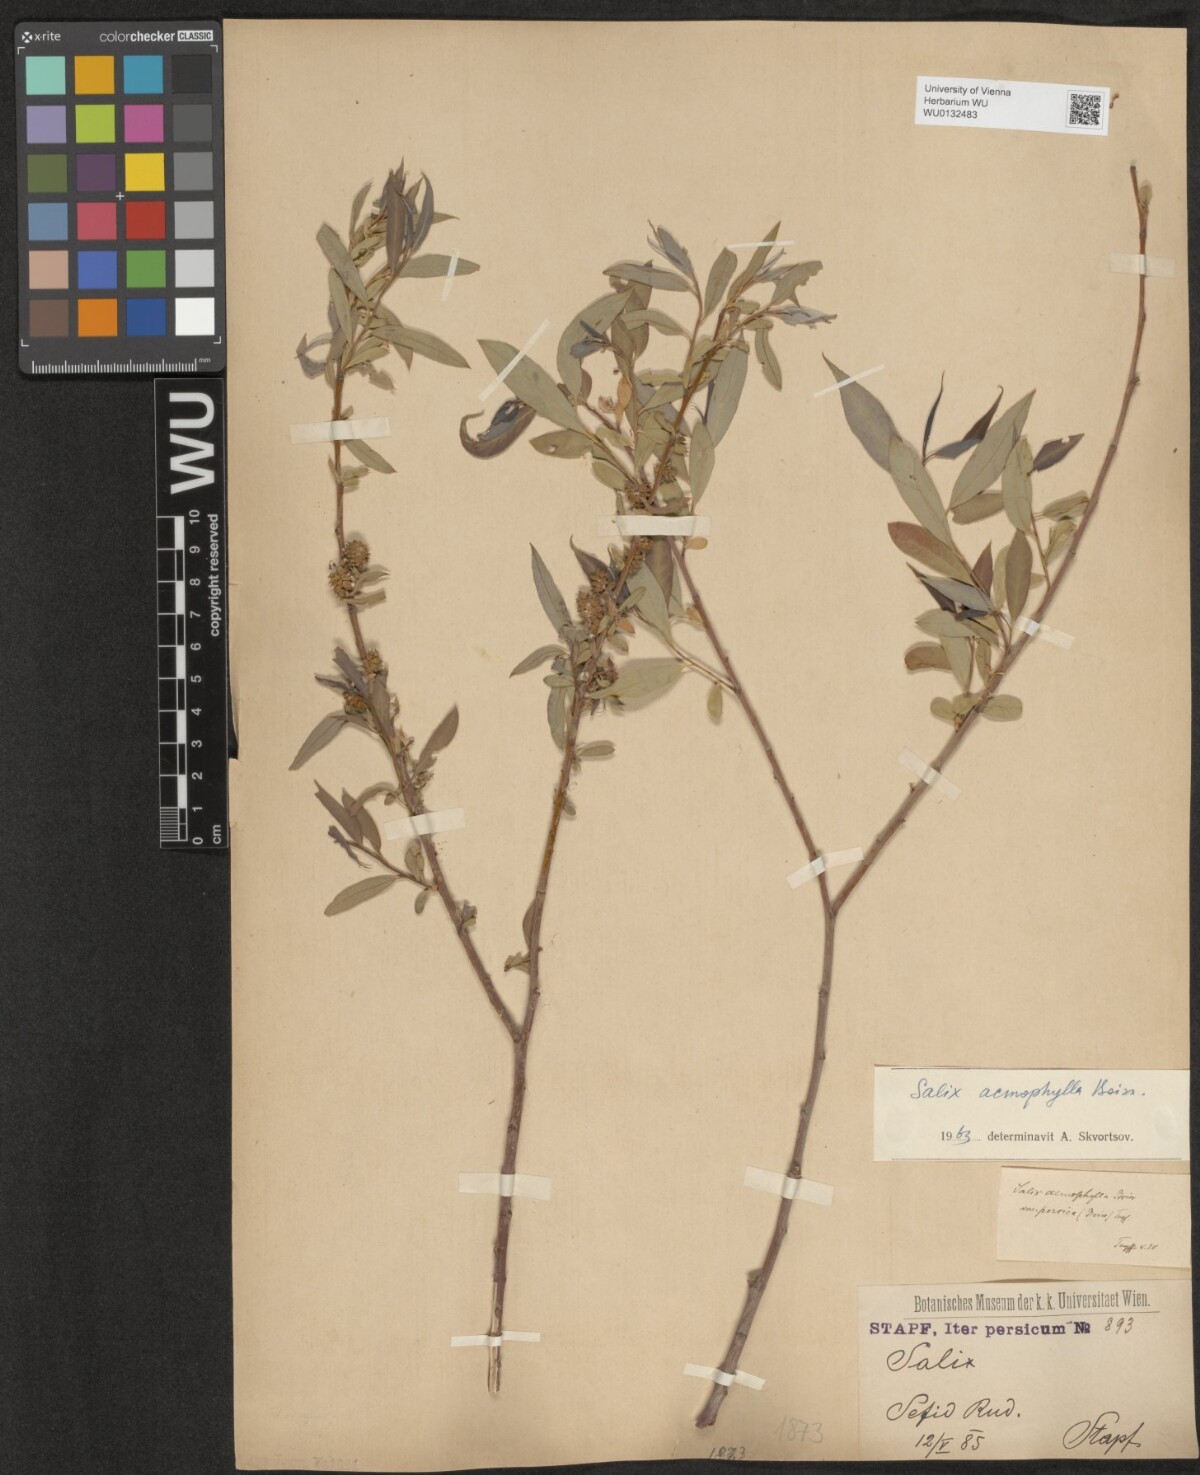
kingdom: Plantae
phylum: Tracheophyta
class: Magnoliopsida
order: Malpighiales
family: Salicaceae
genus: Salix
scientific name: Salix acmophylla
